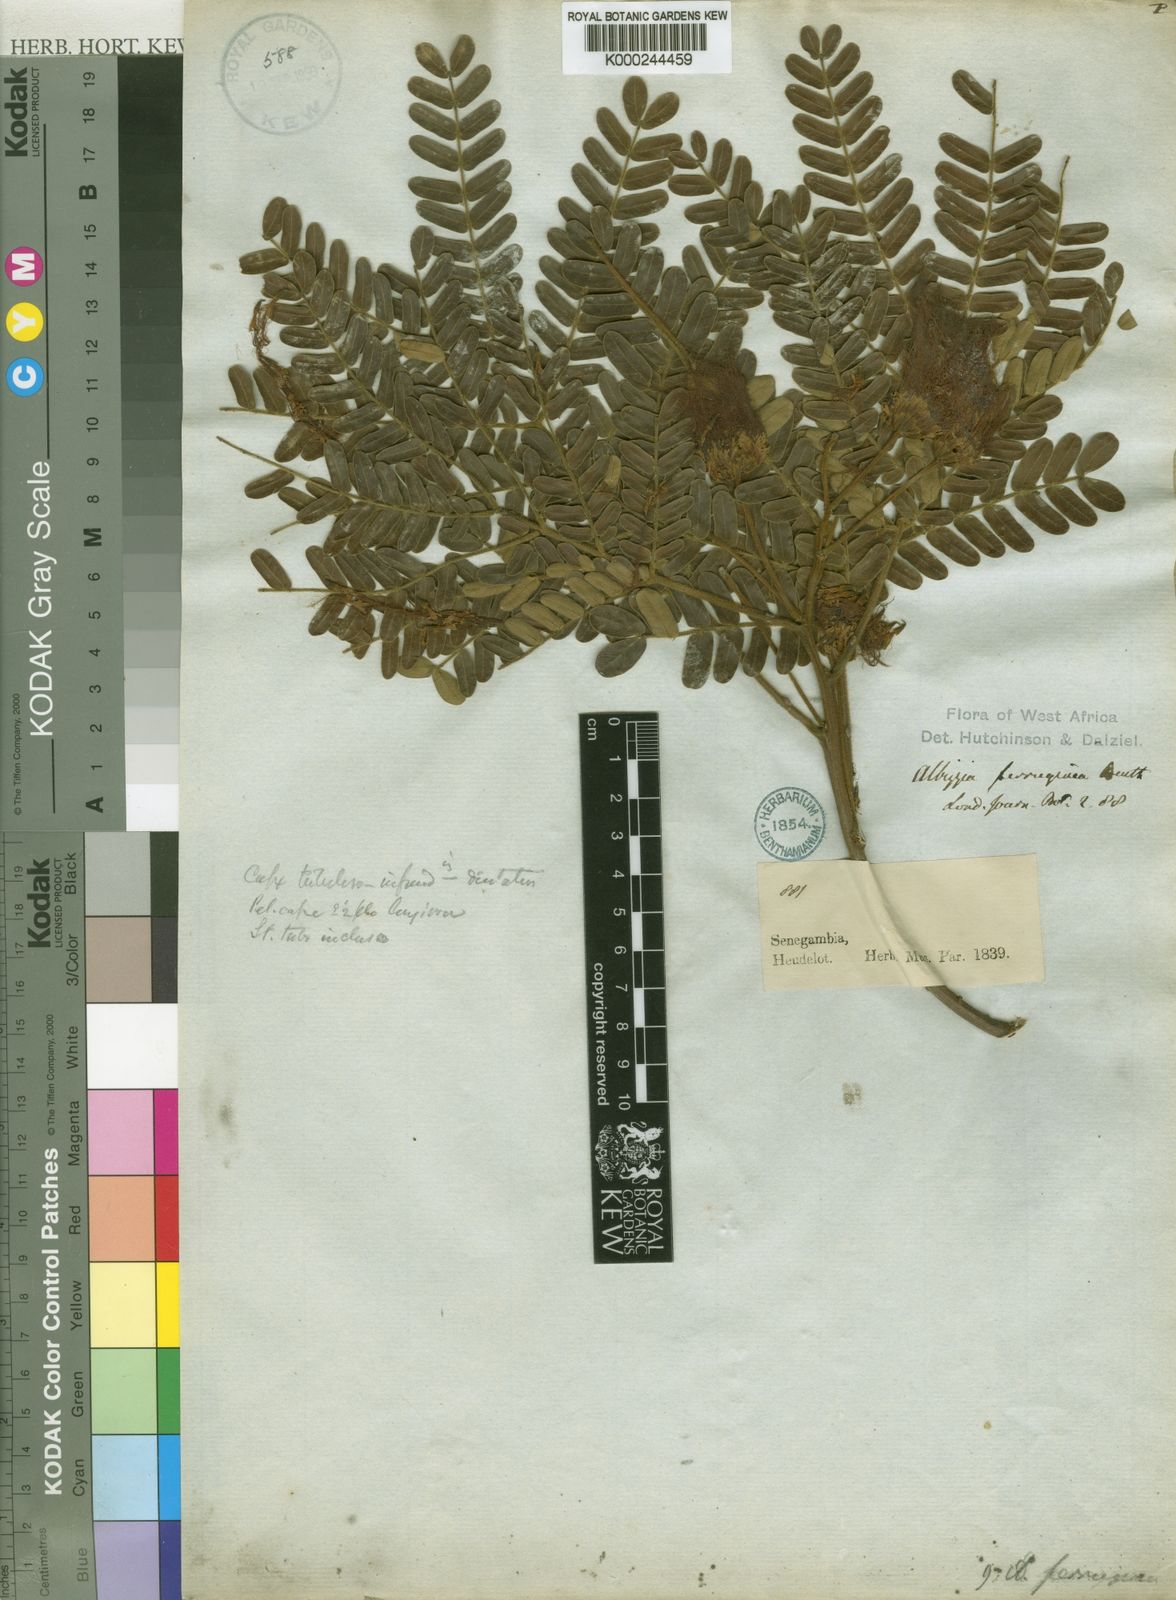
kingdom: Plantae
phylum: Tracheophyta
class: Magnoliopsida
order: Fabales
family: Fabaceae
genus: Albizia
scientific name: Albizia ferruginea
